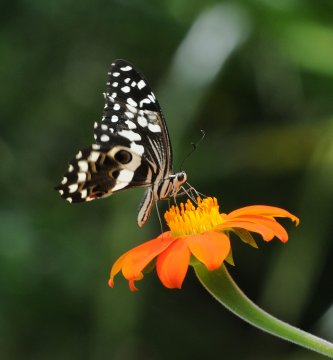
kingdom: Animalia
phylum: Arthropoda
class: Insecta
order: Lepidoptera
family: Papilionidae
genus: Papilio
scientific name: Papilio demodocus
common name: Citrus Swallowtail
